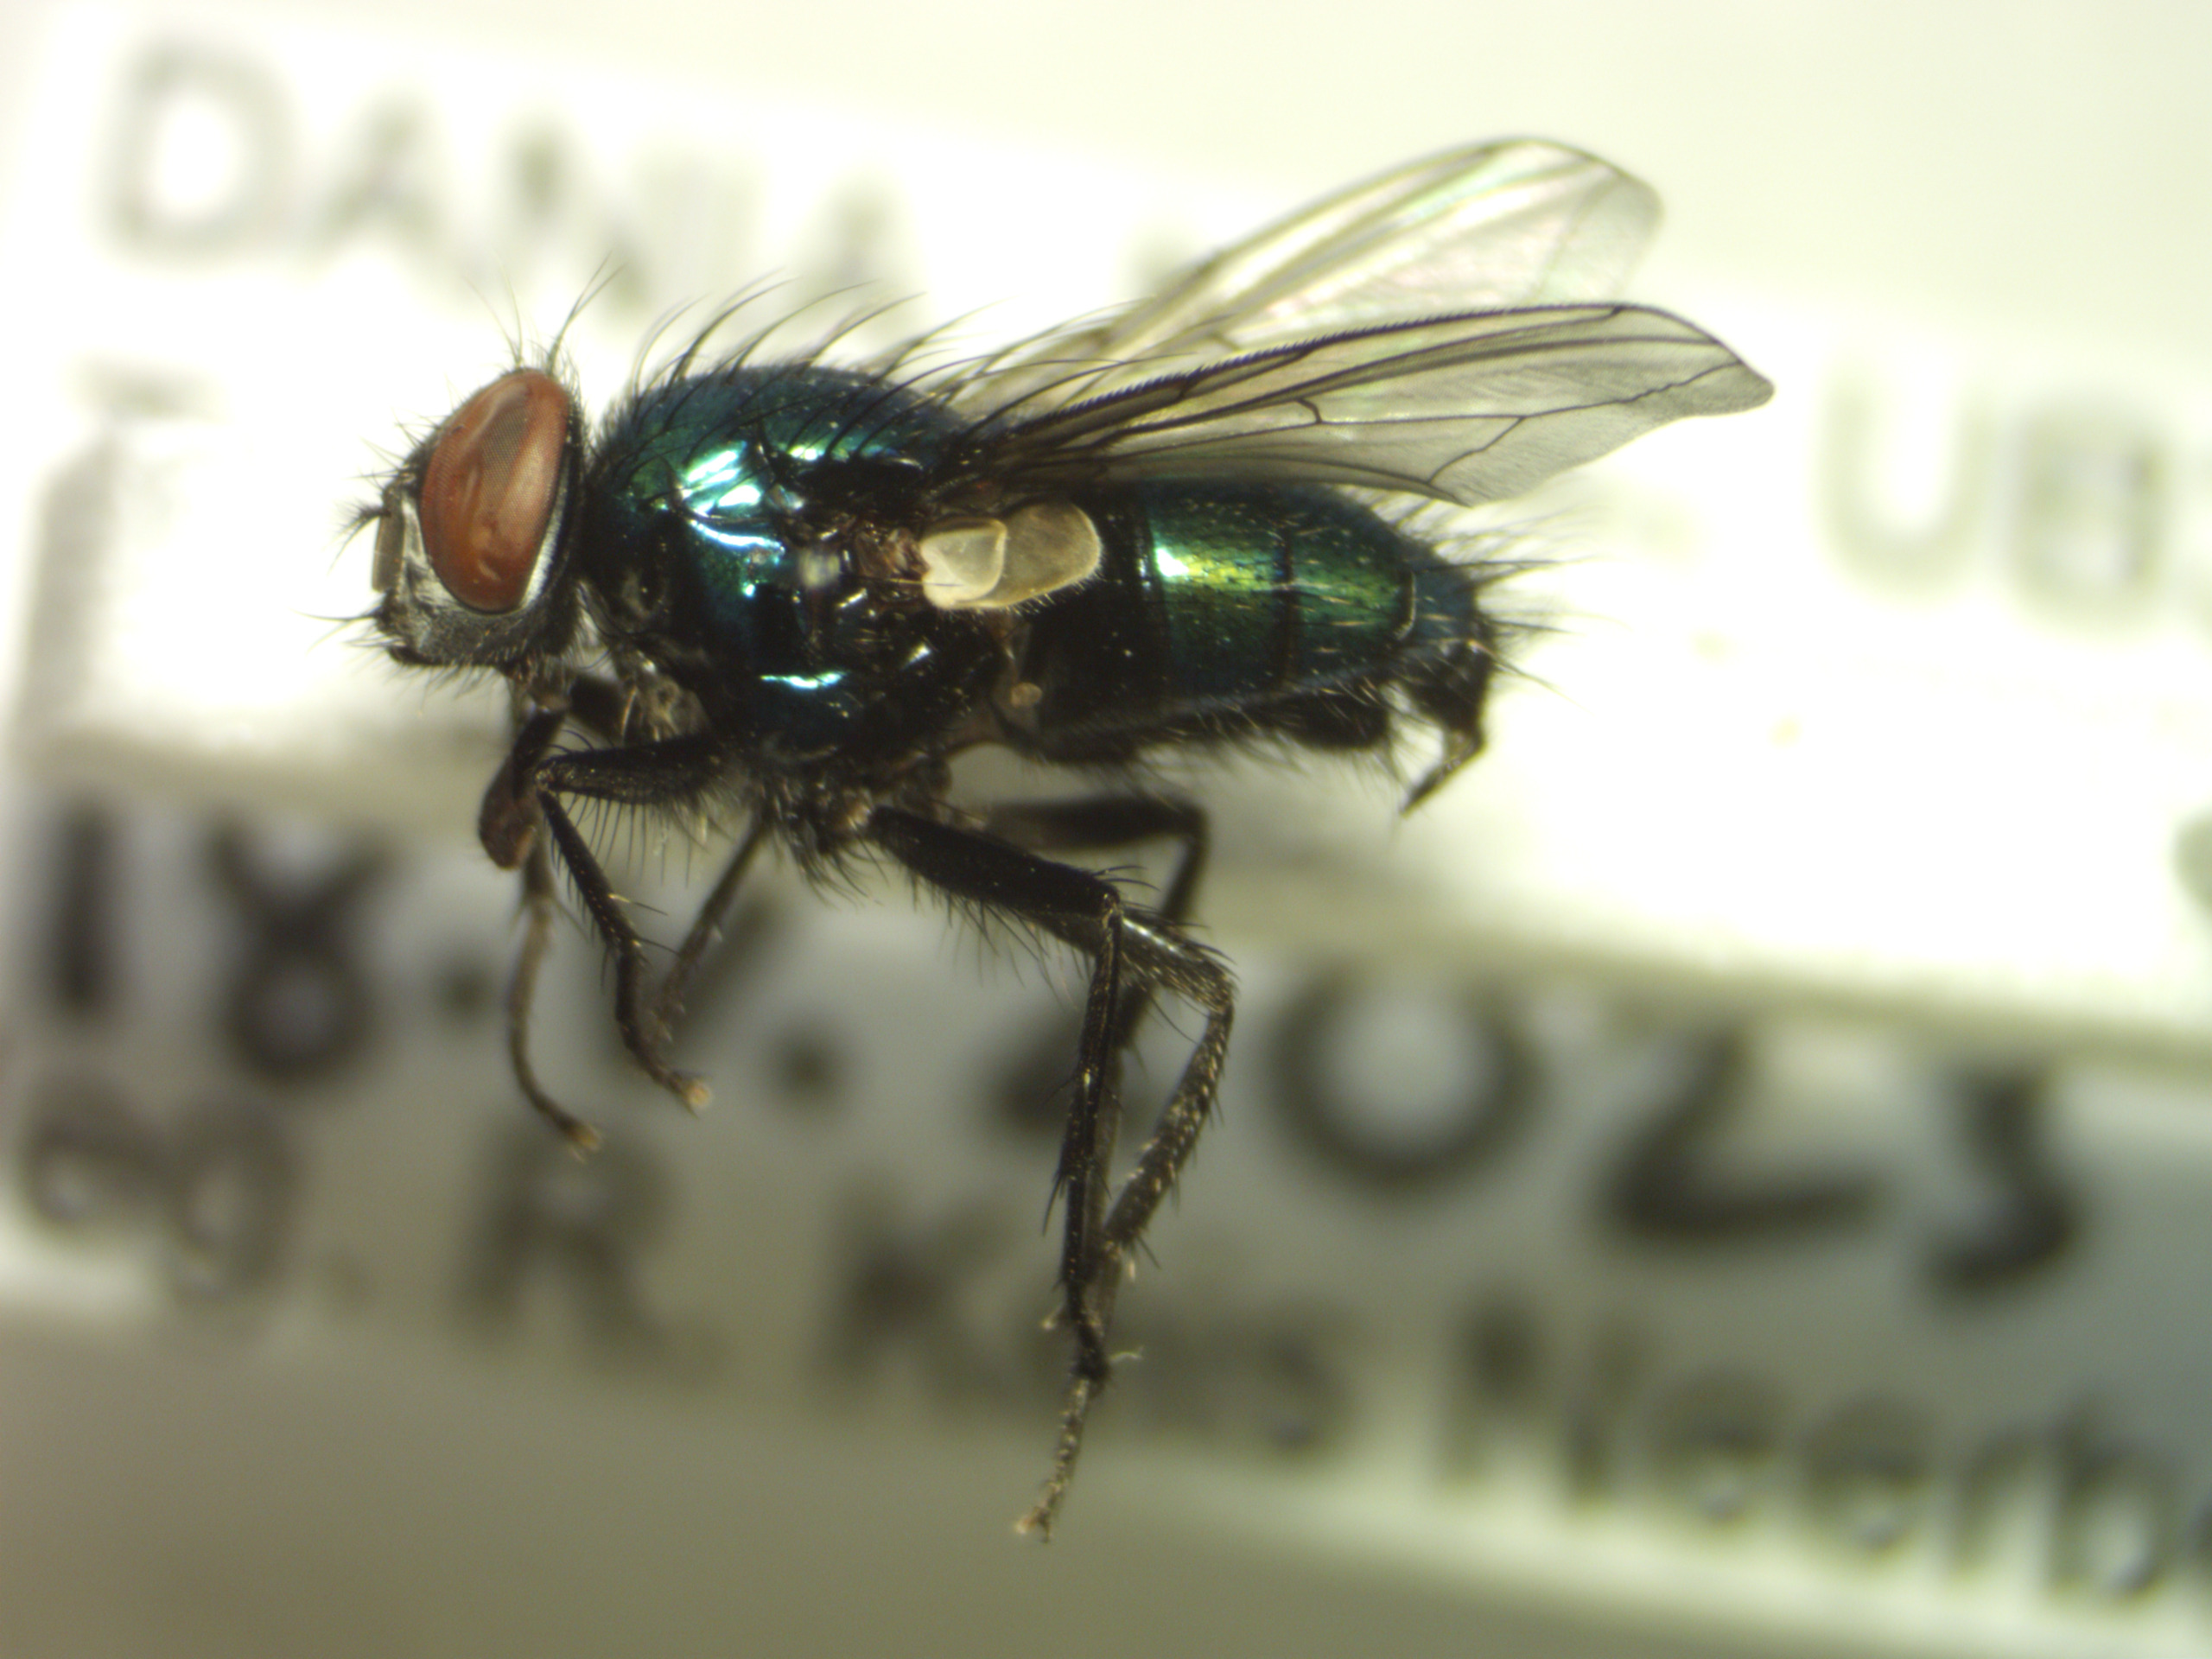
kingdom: Animalia
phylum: Arthropoda
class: Insecta
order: Diptera
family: Calliphoridae
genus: Lucilia
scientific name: Lucilia silvarum
